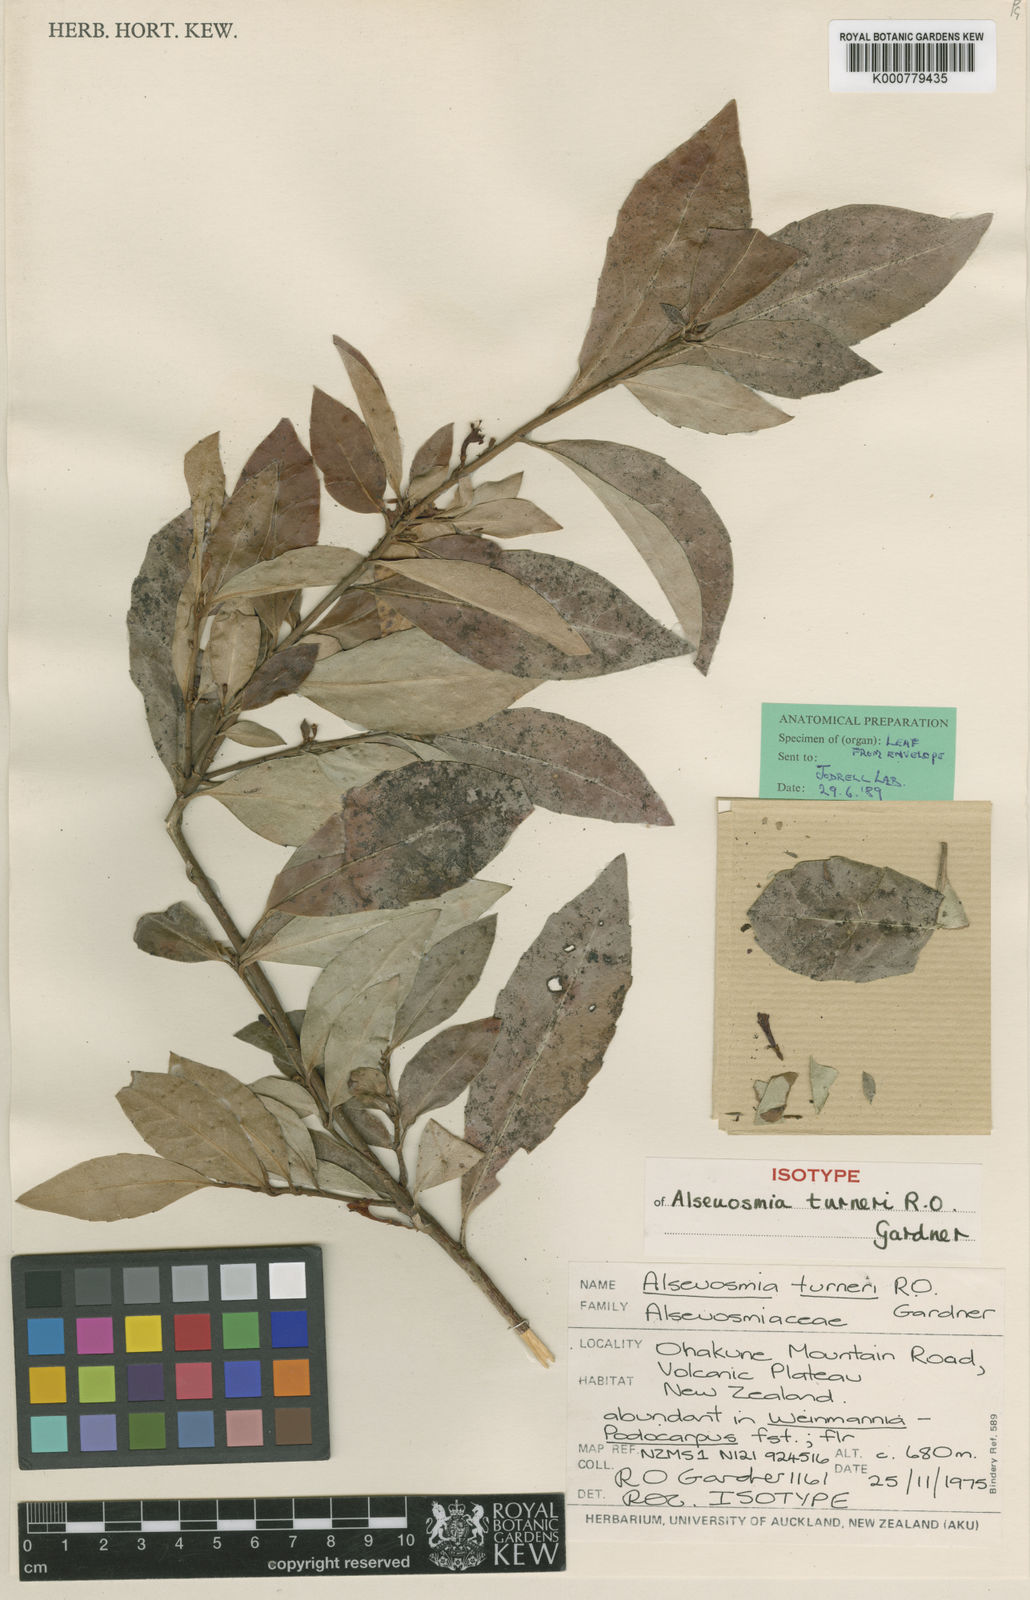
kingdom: Plantae
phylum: Tracheophyta
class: Magnoliopsida
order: Asterales
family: Alseuosmiaceae
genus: Alseuosmia
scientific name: Alseuosmia turneri
